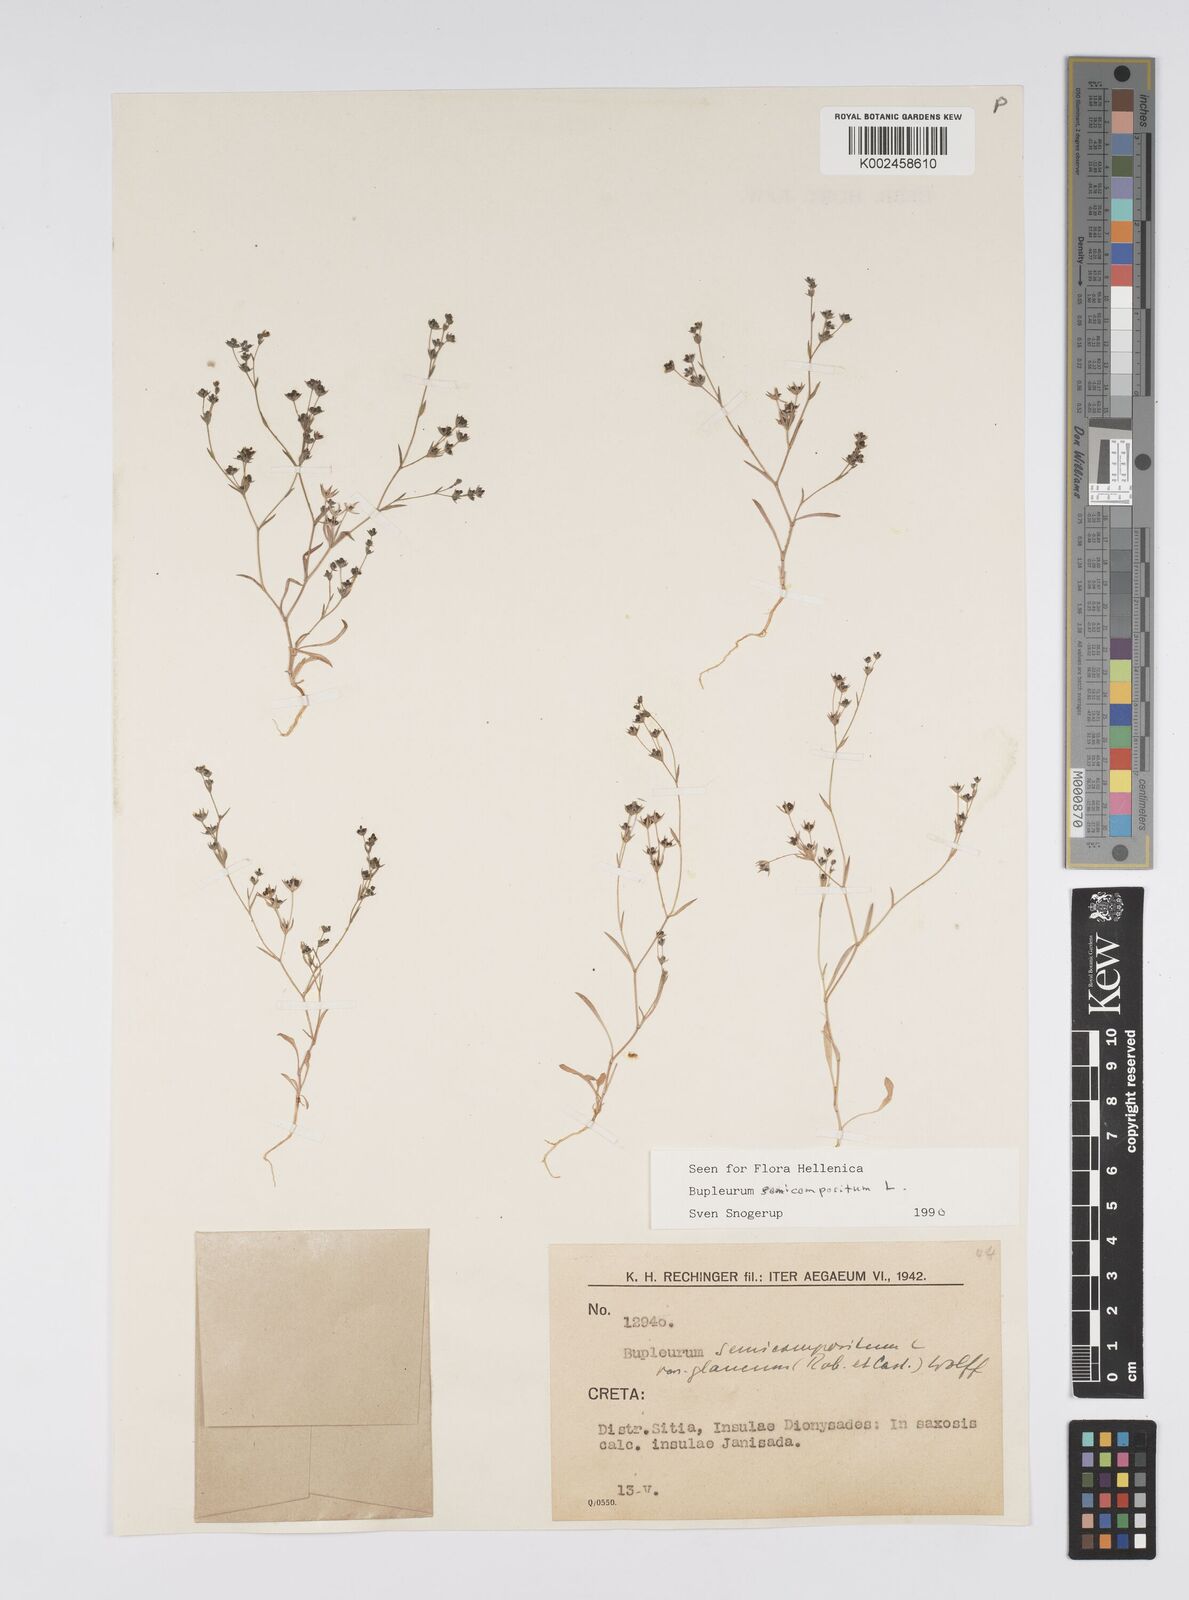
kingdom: Plantae
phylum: Tracheophyta
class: Magnoliopsida
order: Apiales
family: Apiaceae
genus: Bupleurum
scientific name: Bupleurum semicompositum
